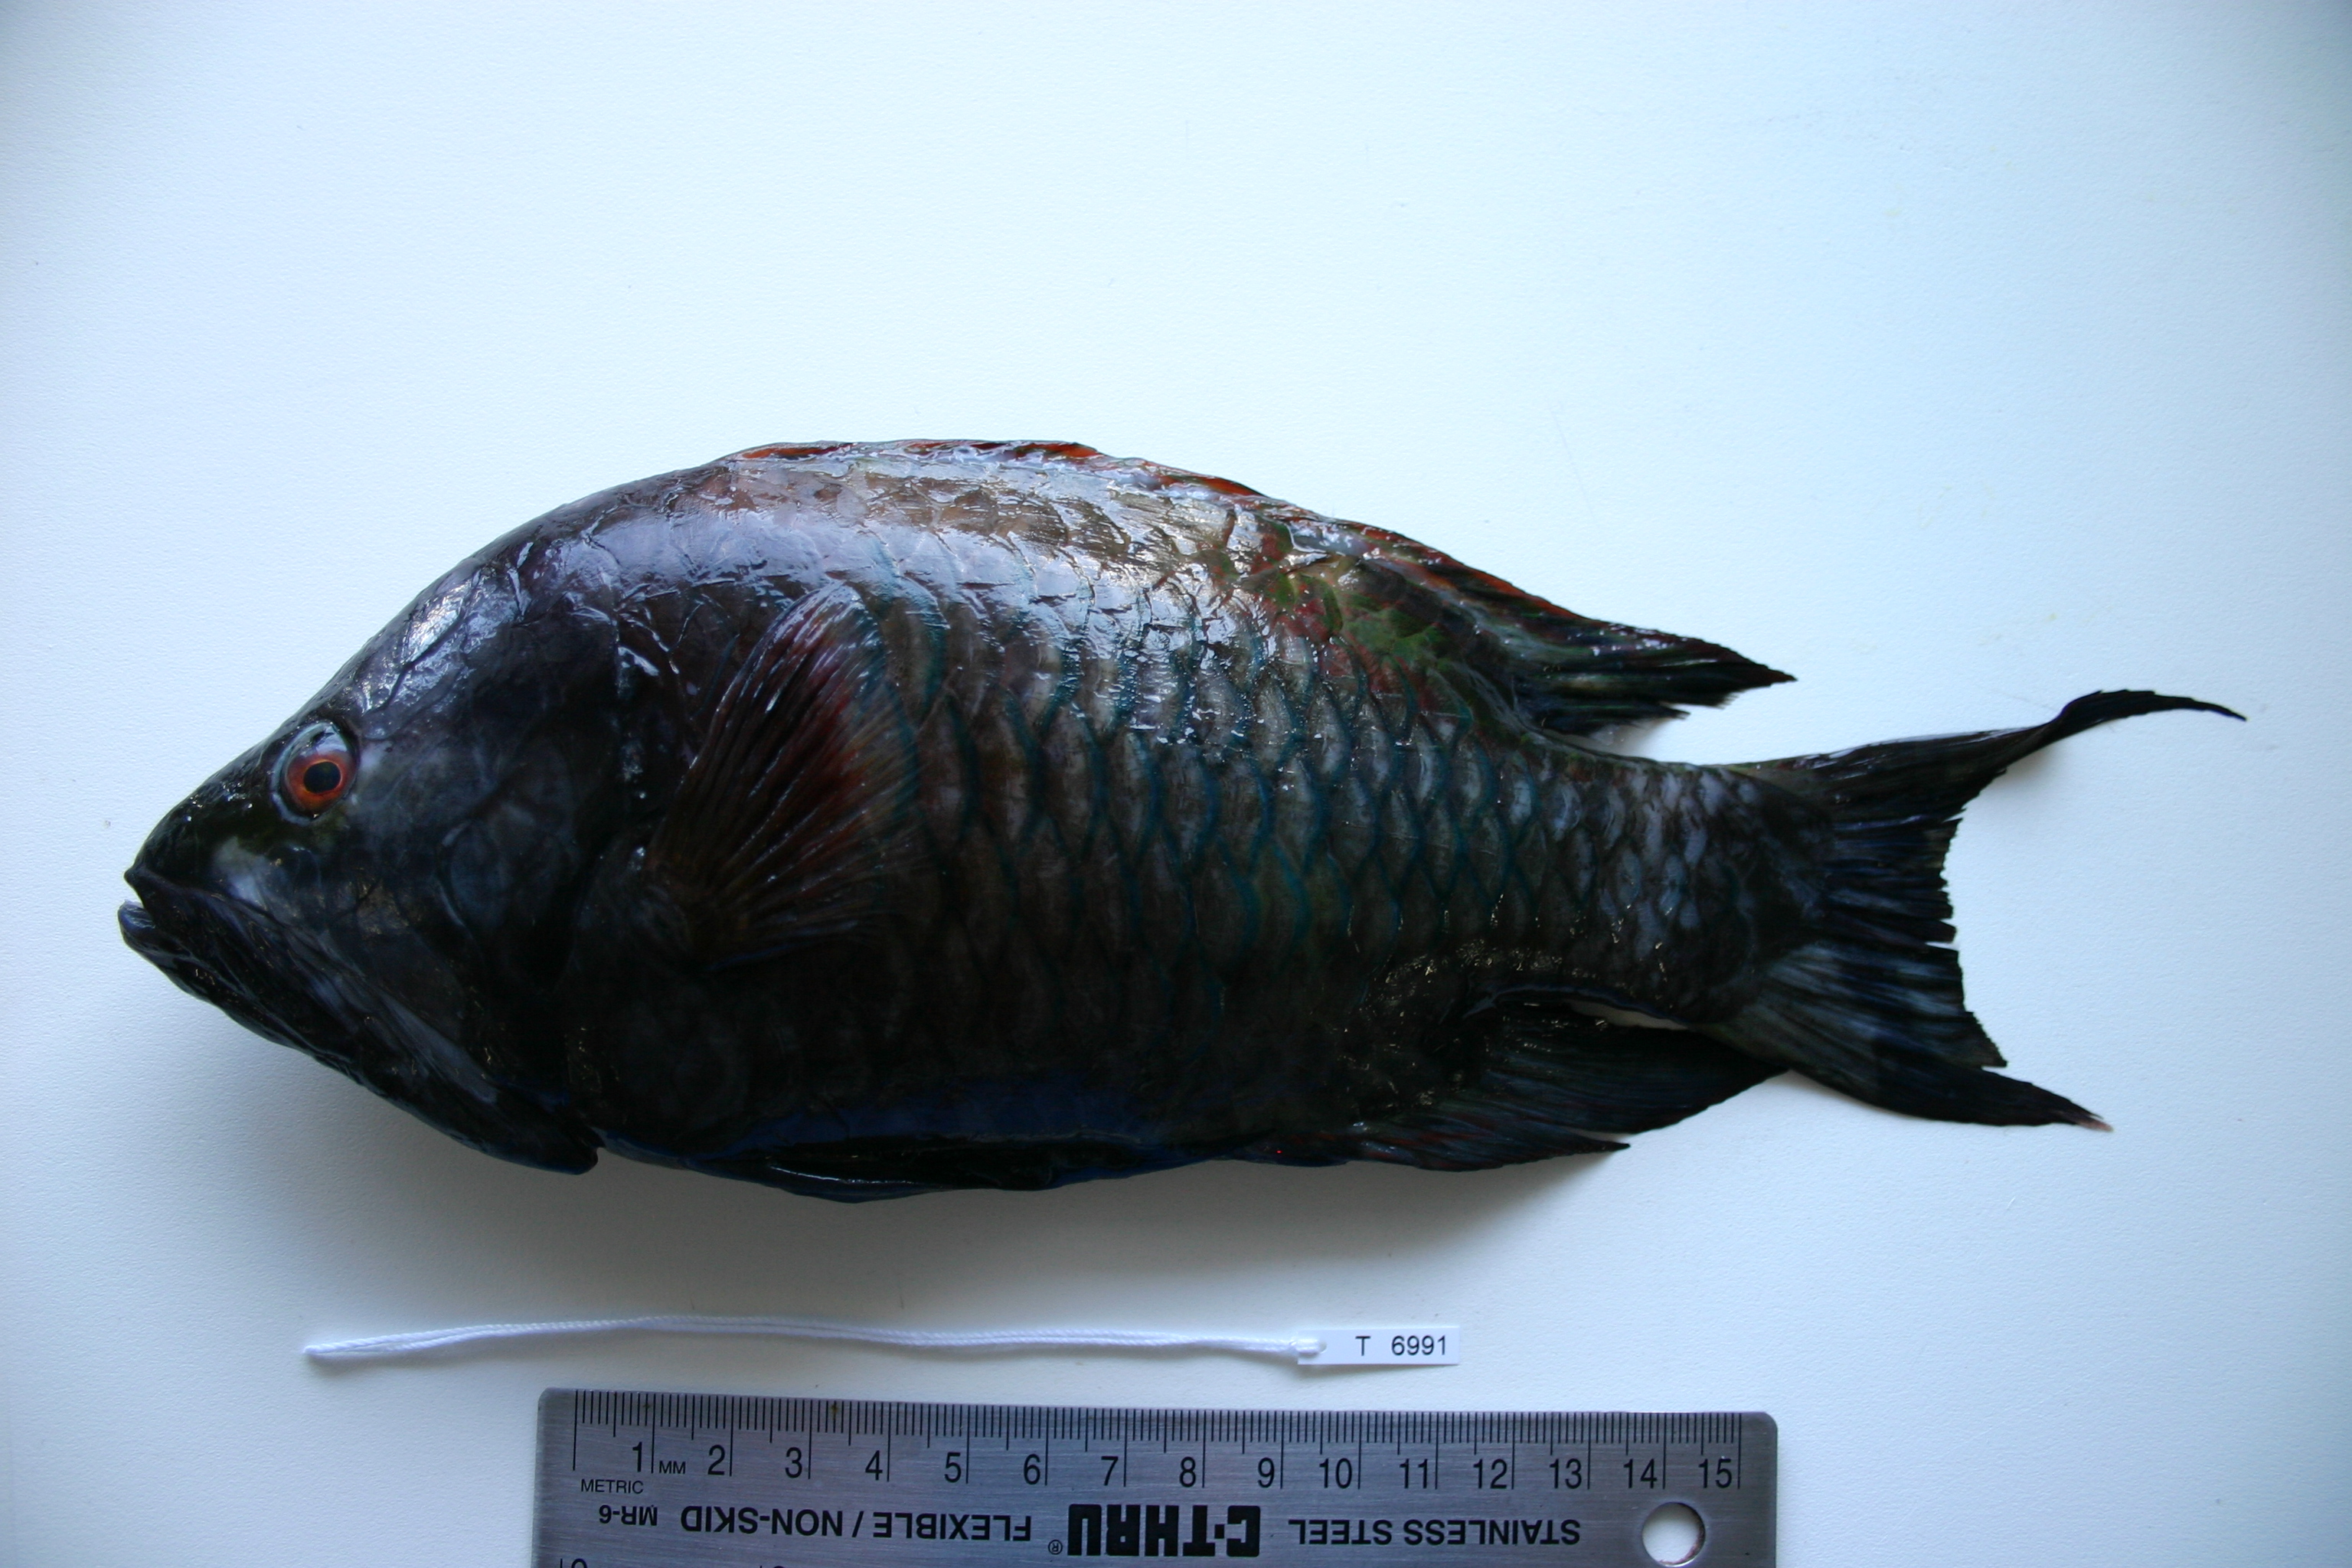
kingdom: Animalia
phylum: Chordata
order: Perciformes
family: Labridae
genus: Epibulus
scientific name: Epibulus insidiator
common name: Slingjaw wrasse
